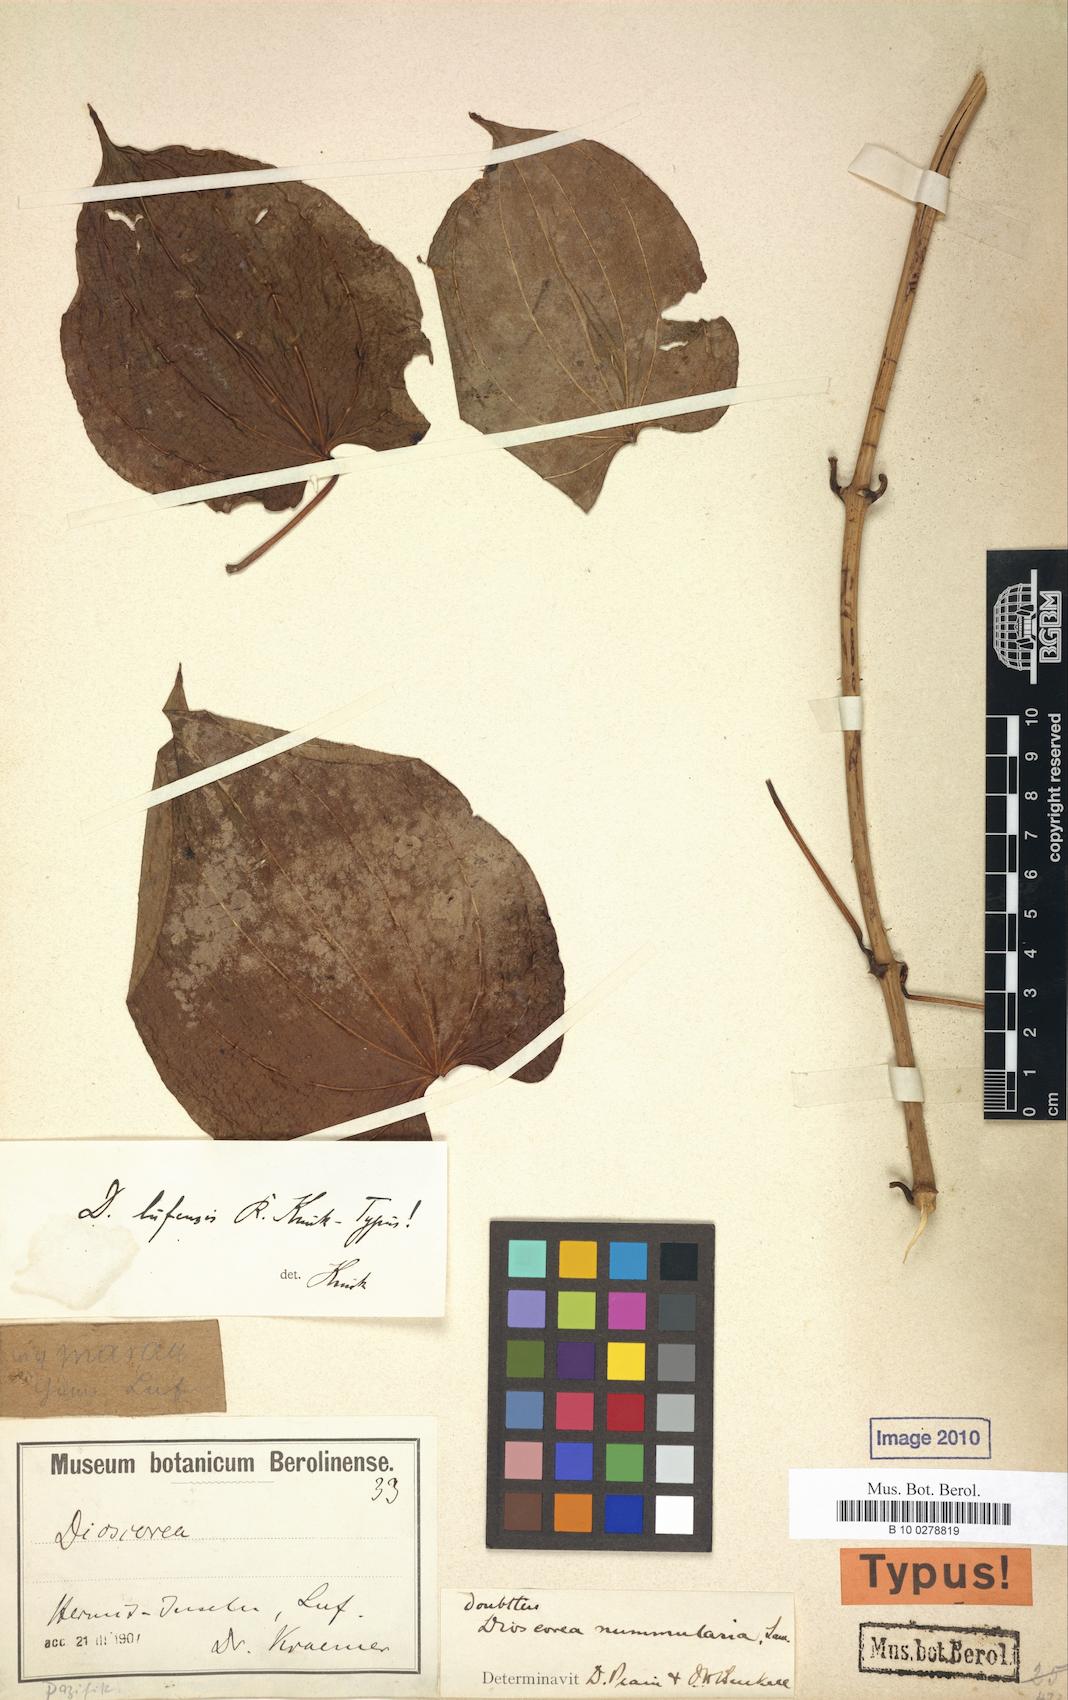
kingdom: Plantae
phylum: Tracheophyta
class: Liliopsida
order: Dioscoreales
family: Dioscoreaceae
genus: Dioscorea
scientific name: Dioscorea nummularia
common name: Pacific yam
